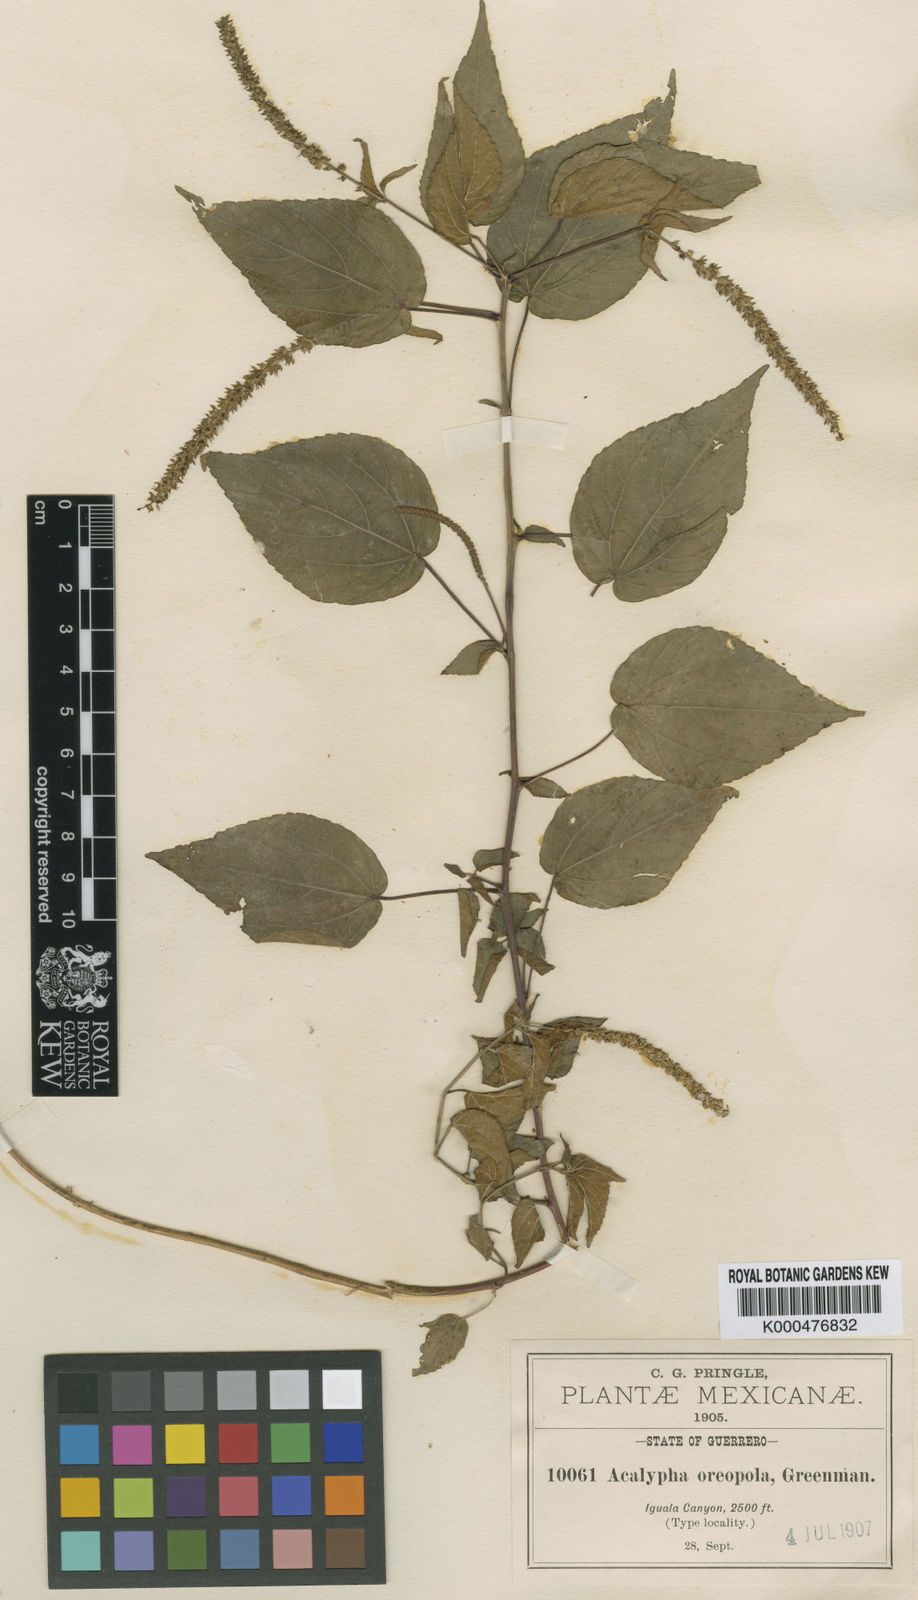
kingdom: Plantae
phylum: Tracheophyta
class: Magnoliopsida
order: Malpighiales
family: Euphorbiaceae
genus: Acalypha
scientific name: Acalypha oreopola
